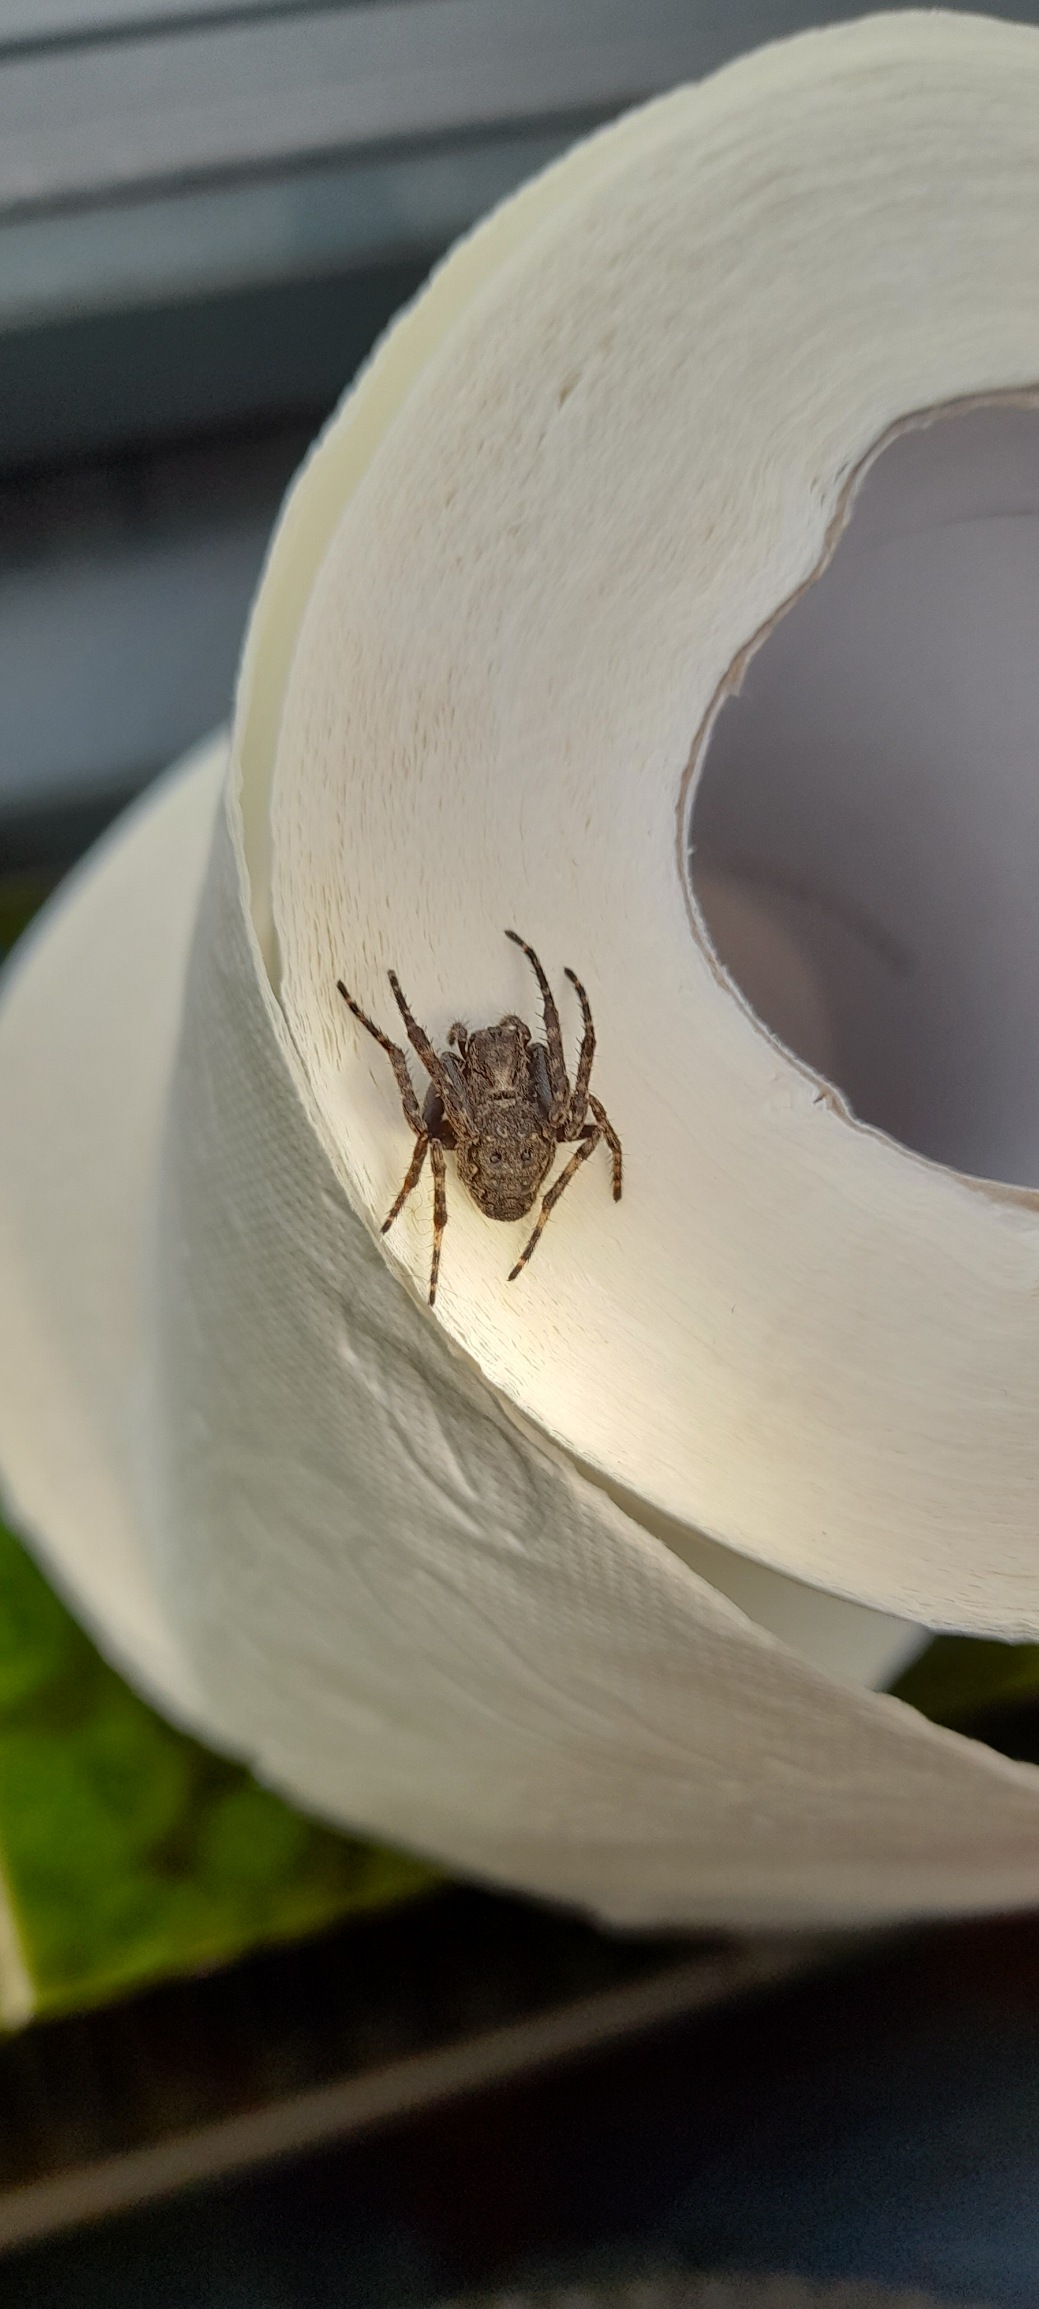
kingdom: Animalia
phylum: Arthropoda
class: Arachnida
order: Araneae
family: Araneidae
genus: Nuctenea
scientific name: Nuctenea umbratica
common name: Flad hjulspinder
